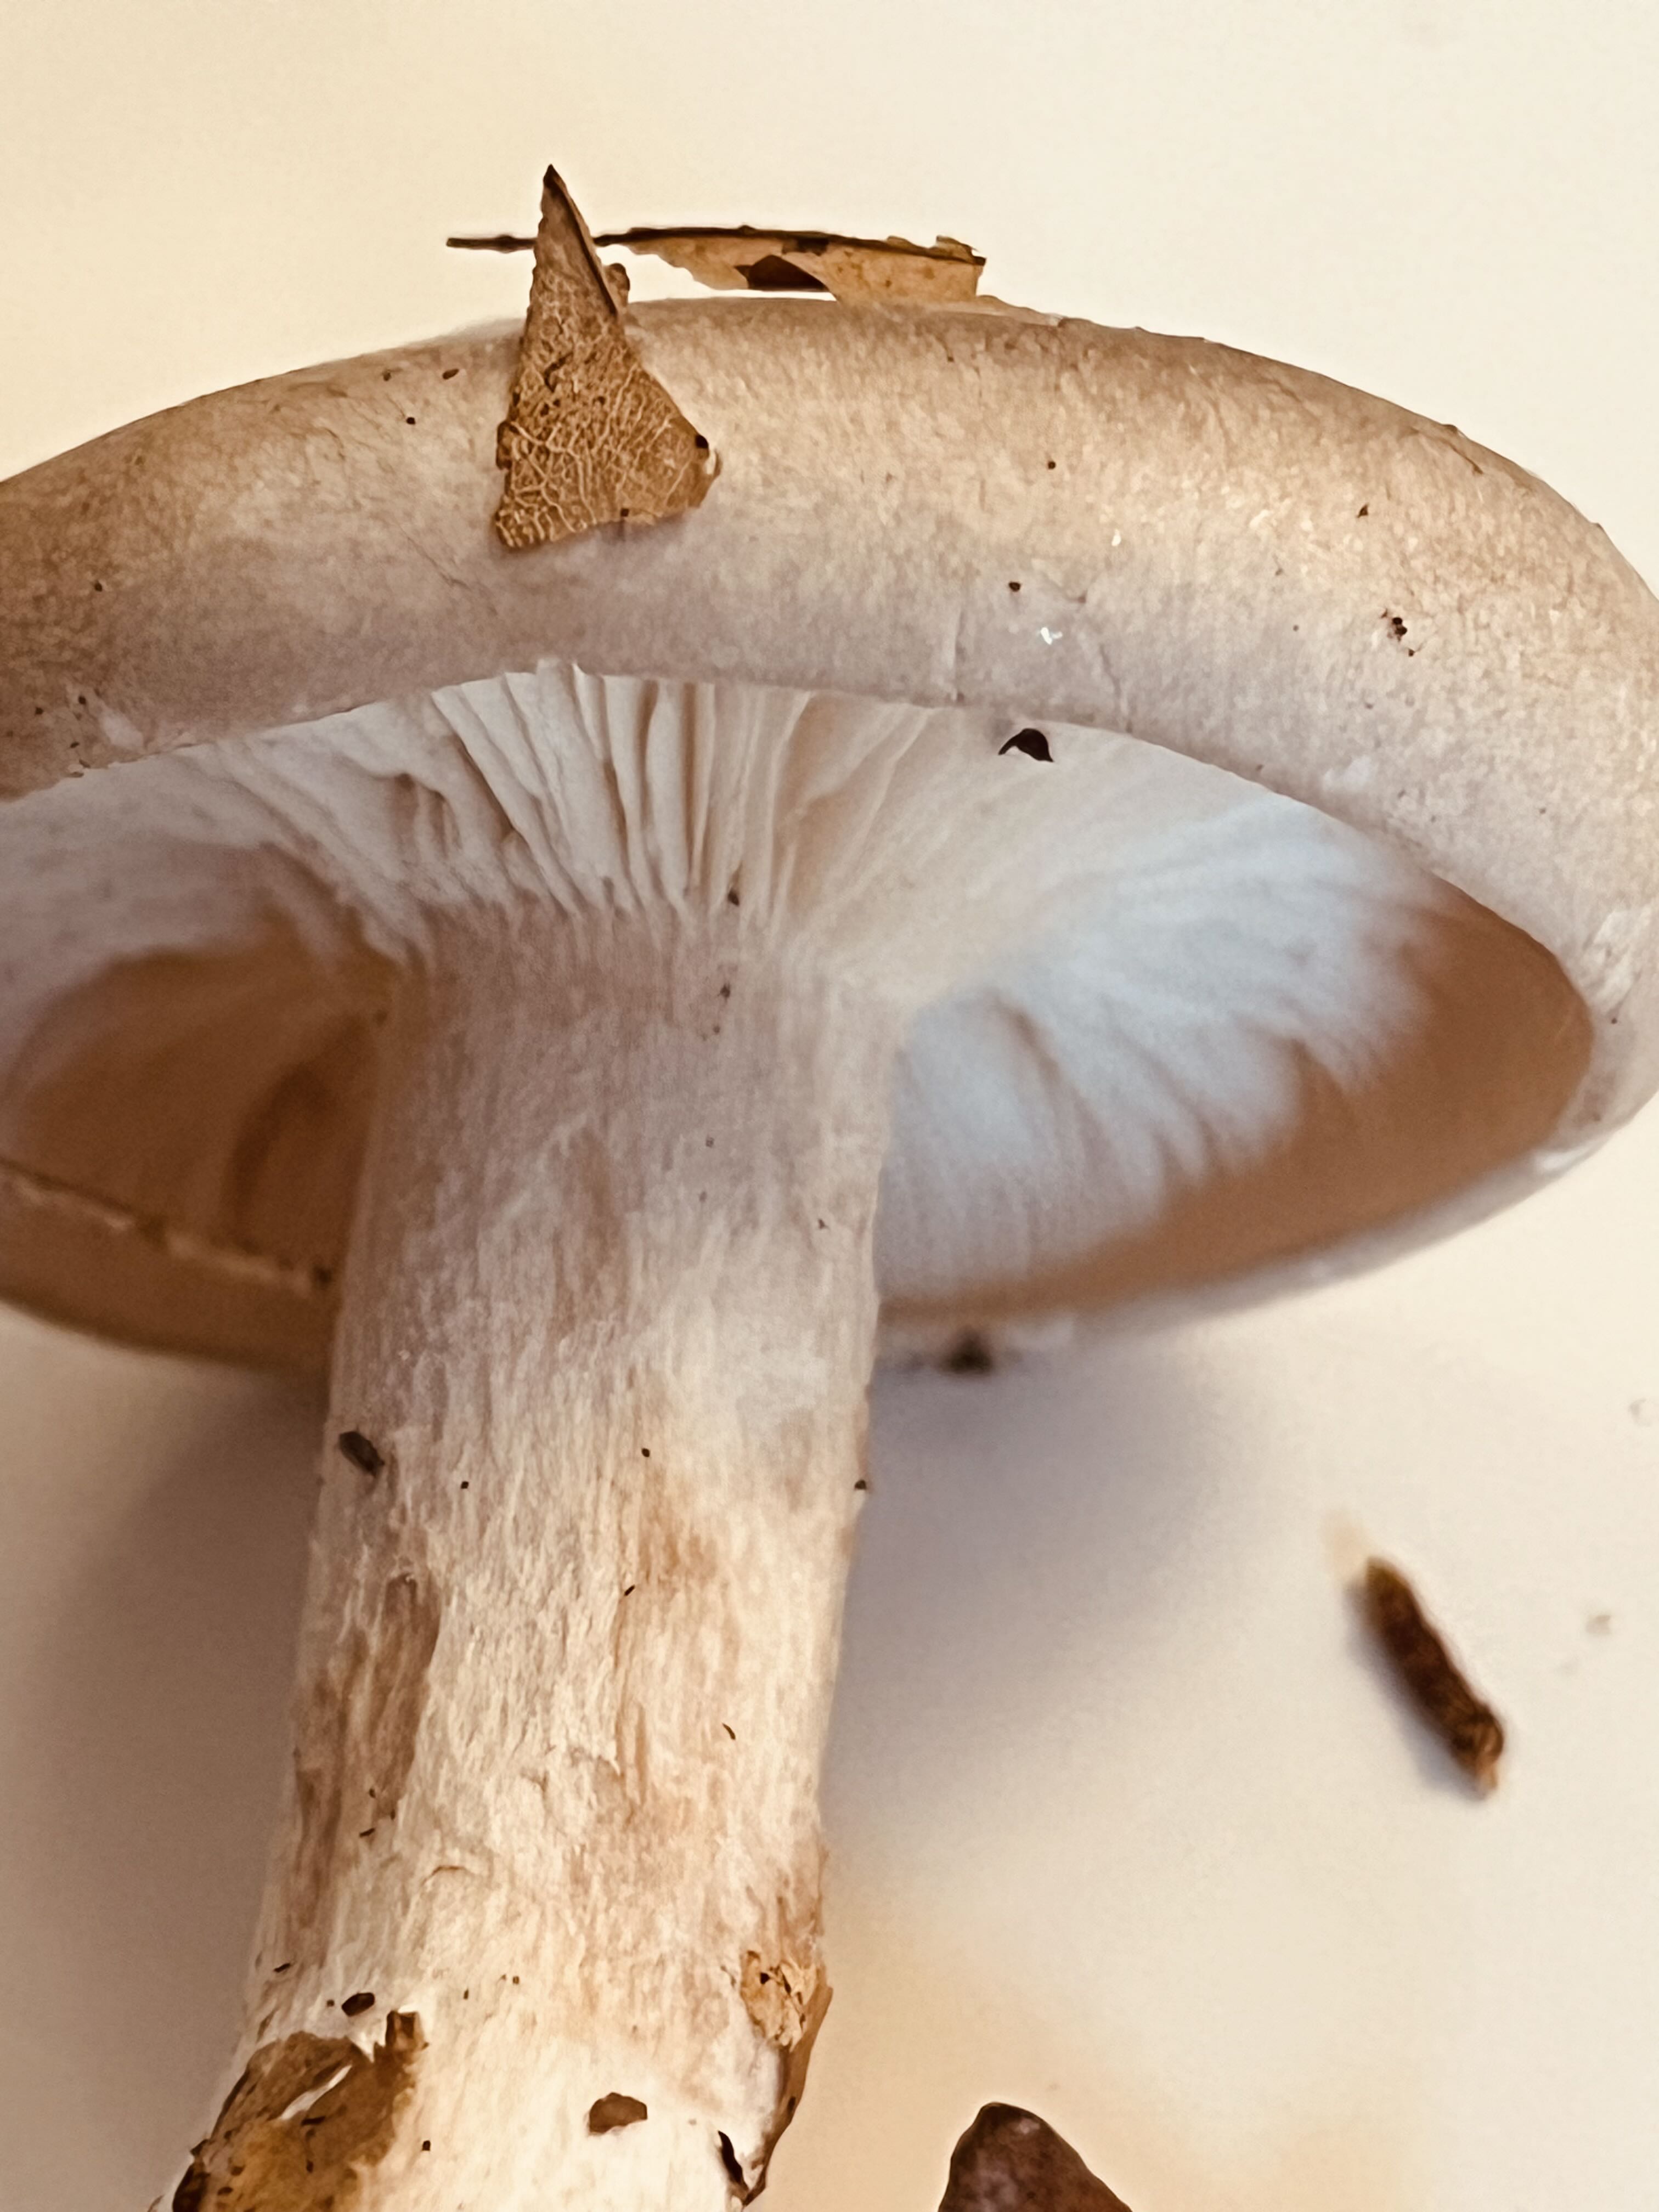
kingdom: Fungi
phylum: Basidiomycota
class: Agaricomycetes
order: Agaricales
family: Tricholomataceae
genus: Clitocybe
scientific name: Clitocybe nebularis
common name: tåge-tragthat
